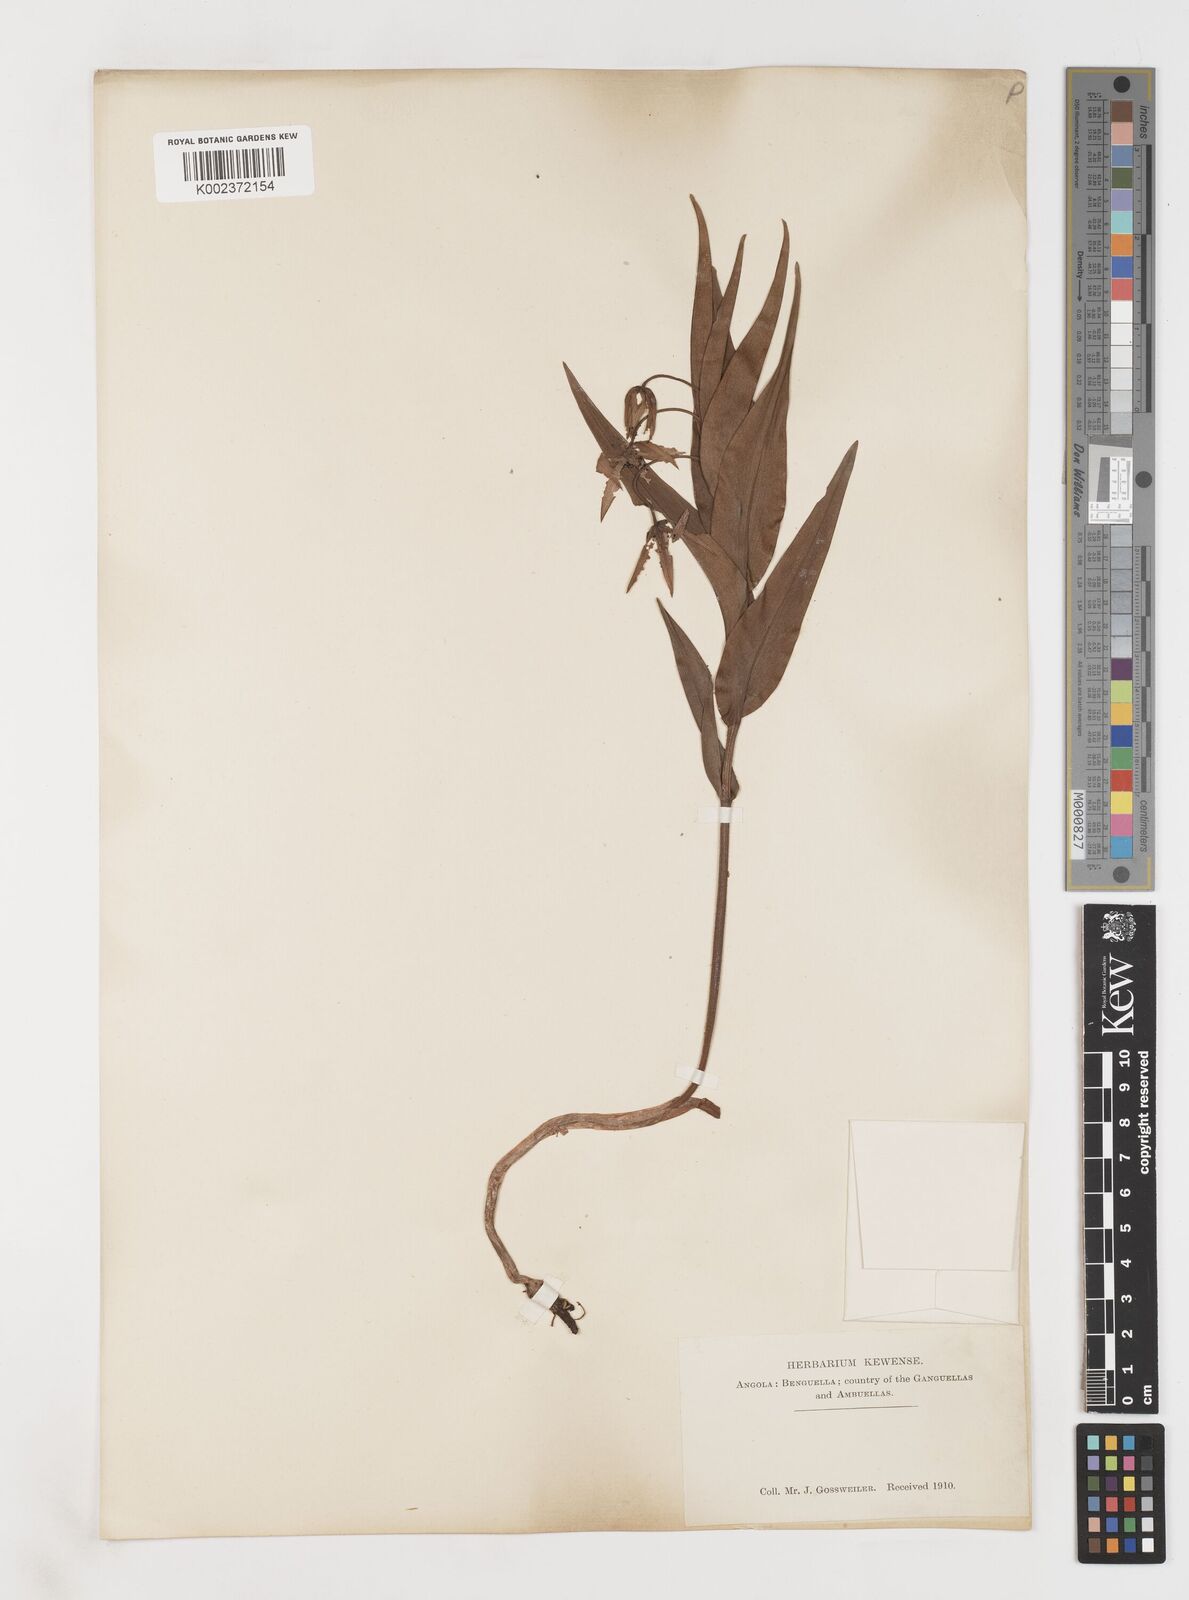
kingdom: Plantae
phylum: Tracheophyta
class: Liliopsida
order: Liliales
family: Colchicaceae
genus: Gloriosa
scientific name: Gloriosa littonioides
